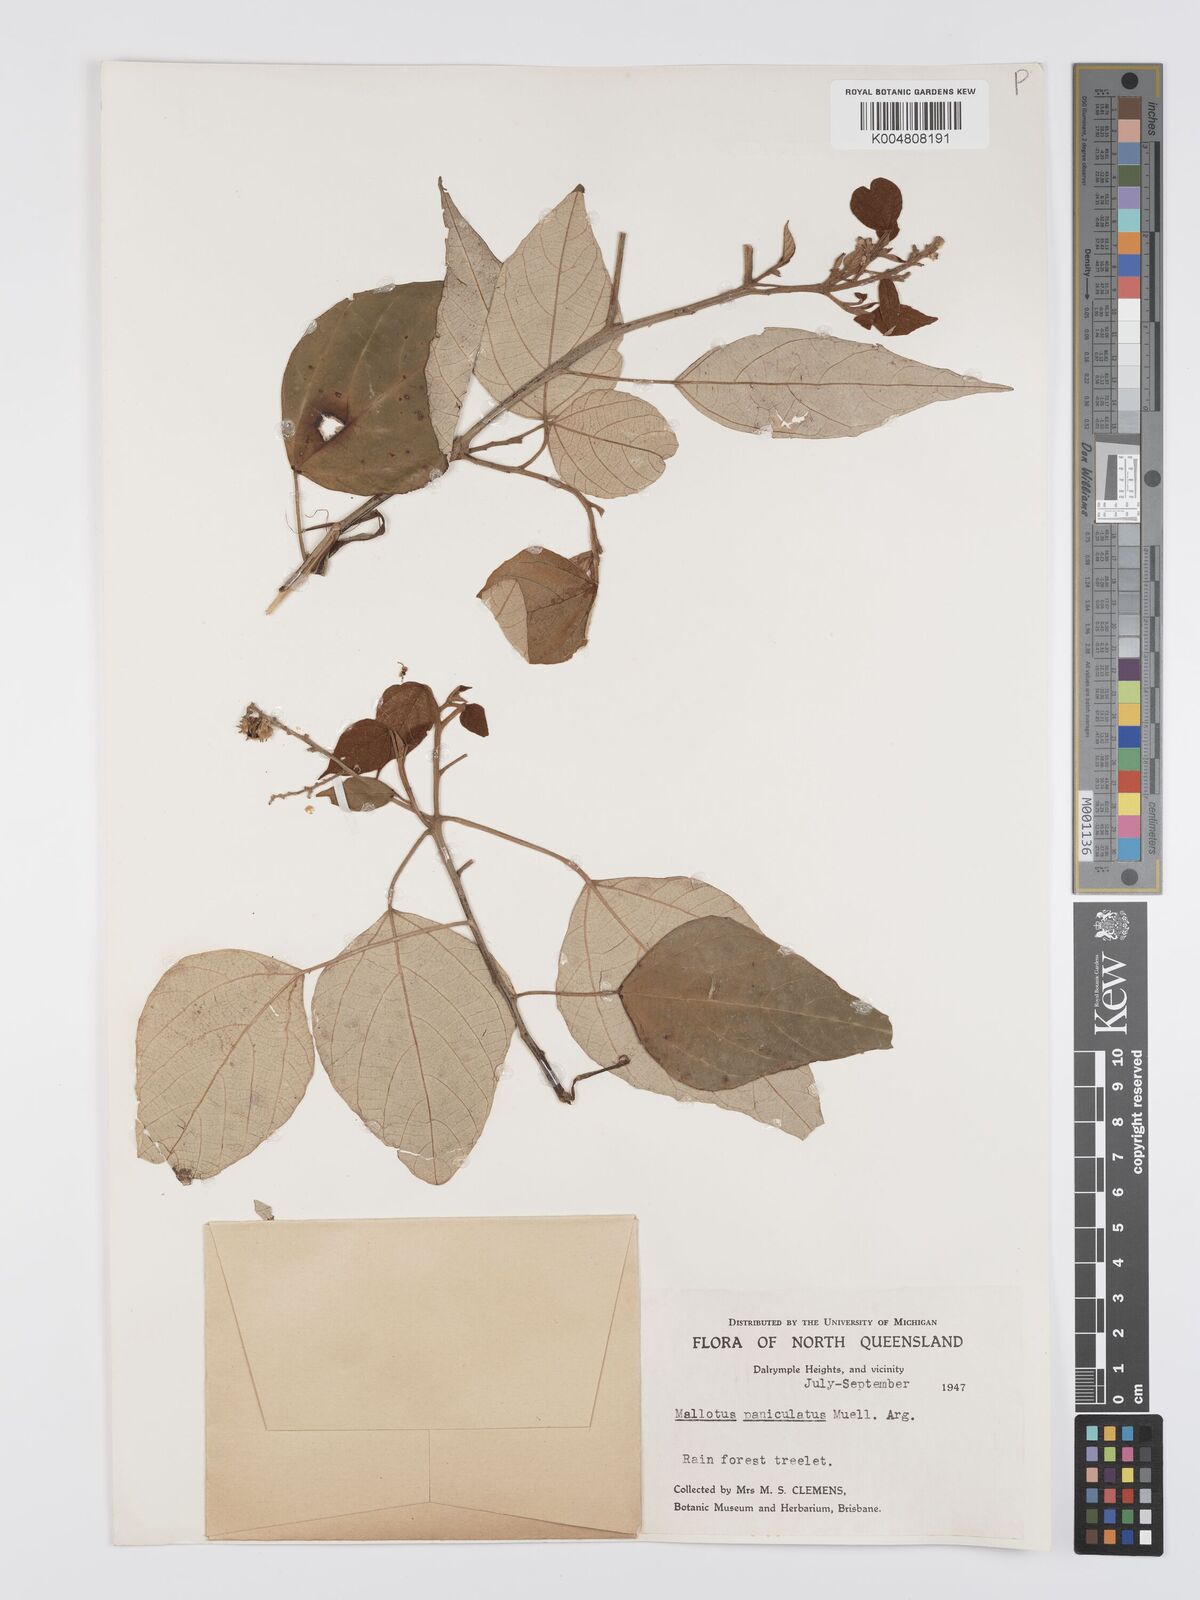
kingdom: Plantae
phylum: Tracheophyta
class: Magnoliopsida
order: Malpighiales
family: Euphorbiaceae
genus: Mallotus
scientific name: Mallotus paniculatus
